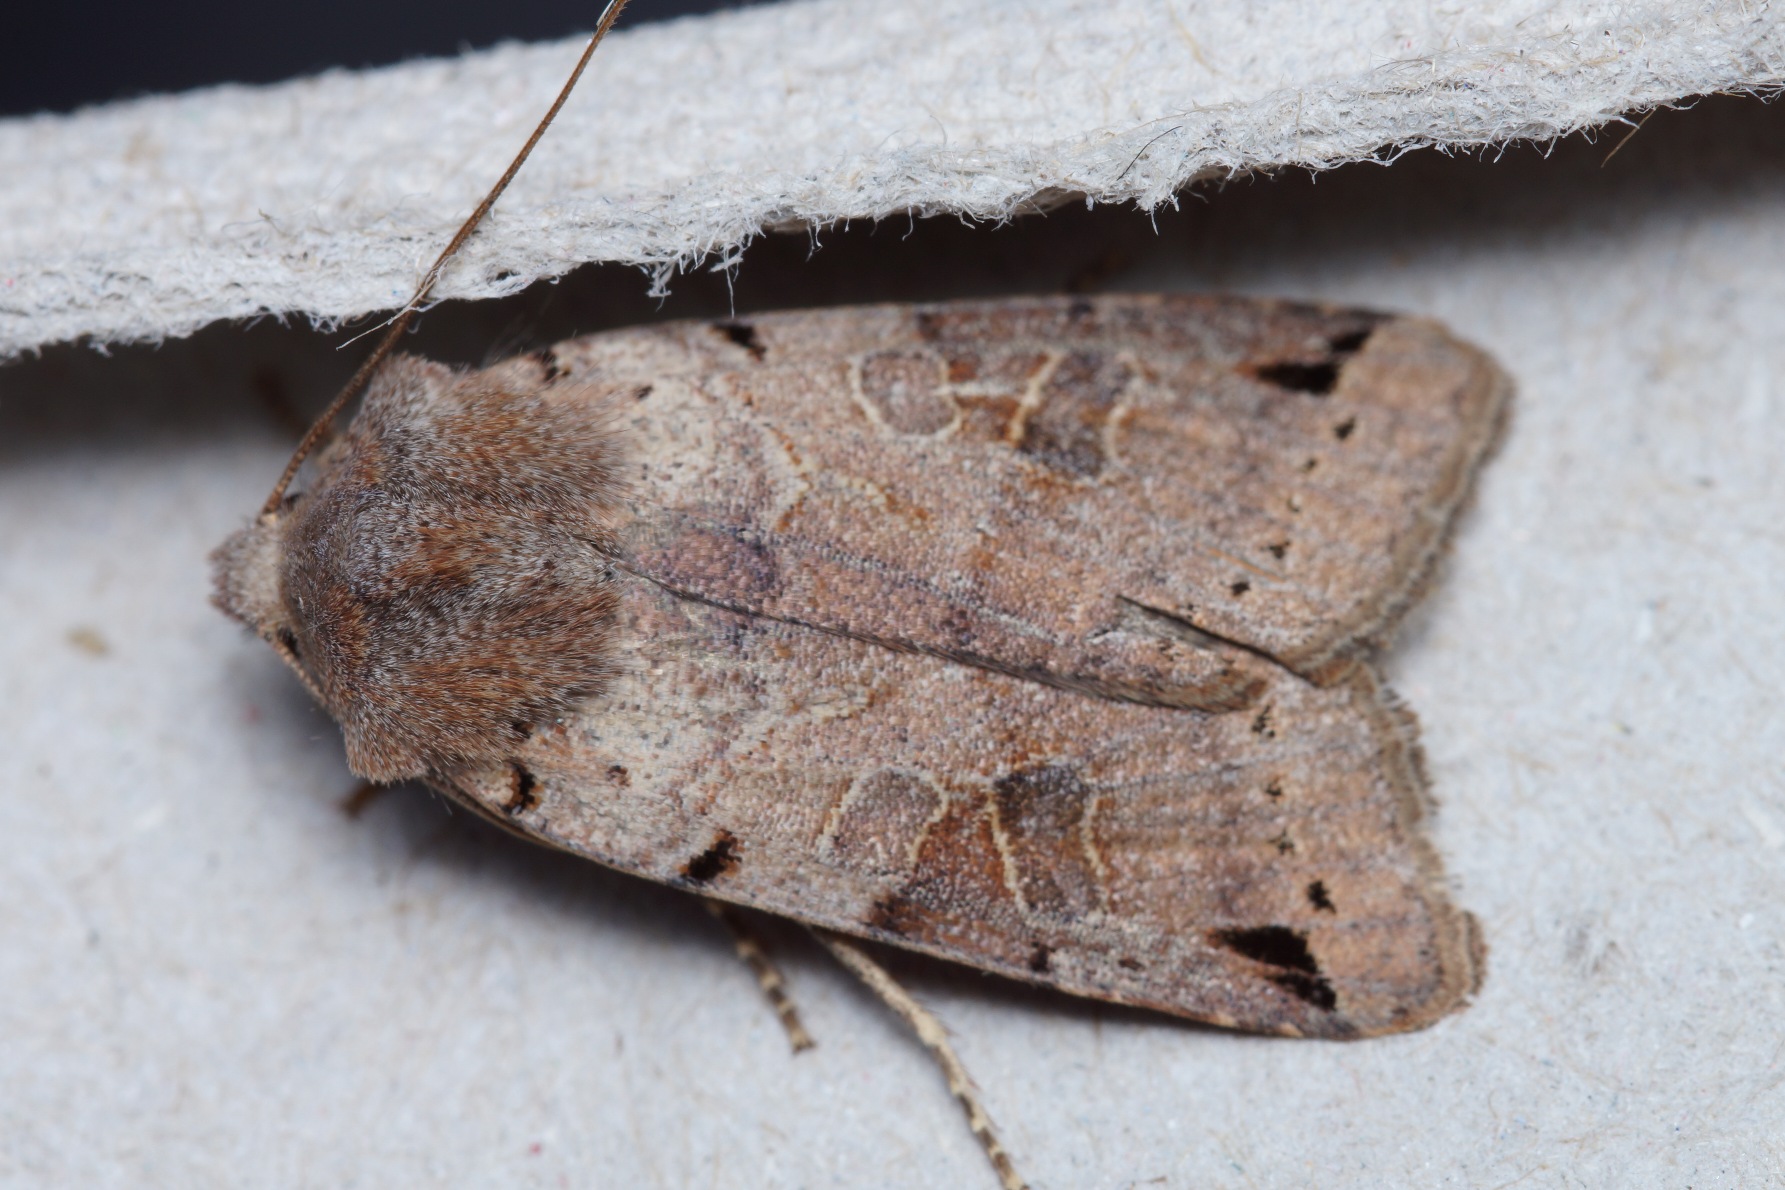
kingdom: Animalia
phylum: Arthropoda
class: Insecta
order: Lepidoptera
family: Noctuidae
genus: Agrochola
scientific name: Agrochola litura
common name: Kantplettet jordfarveugle
